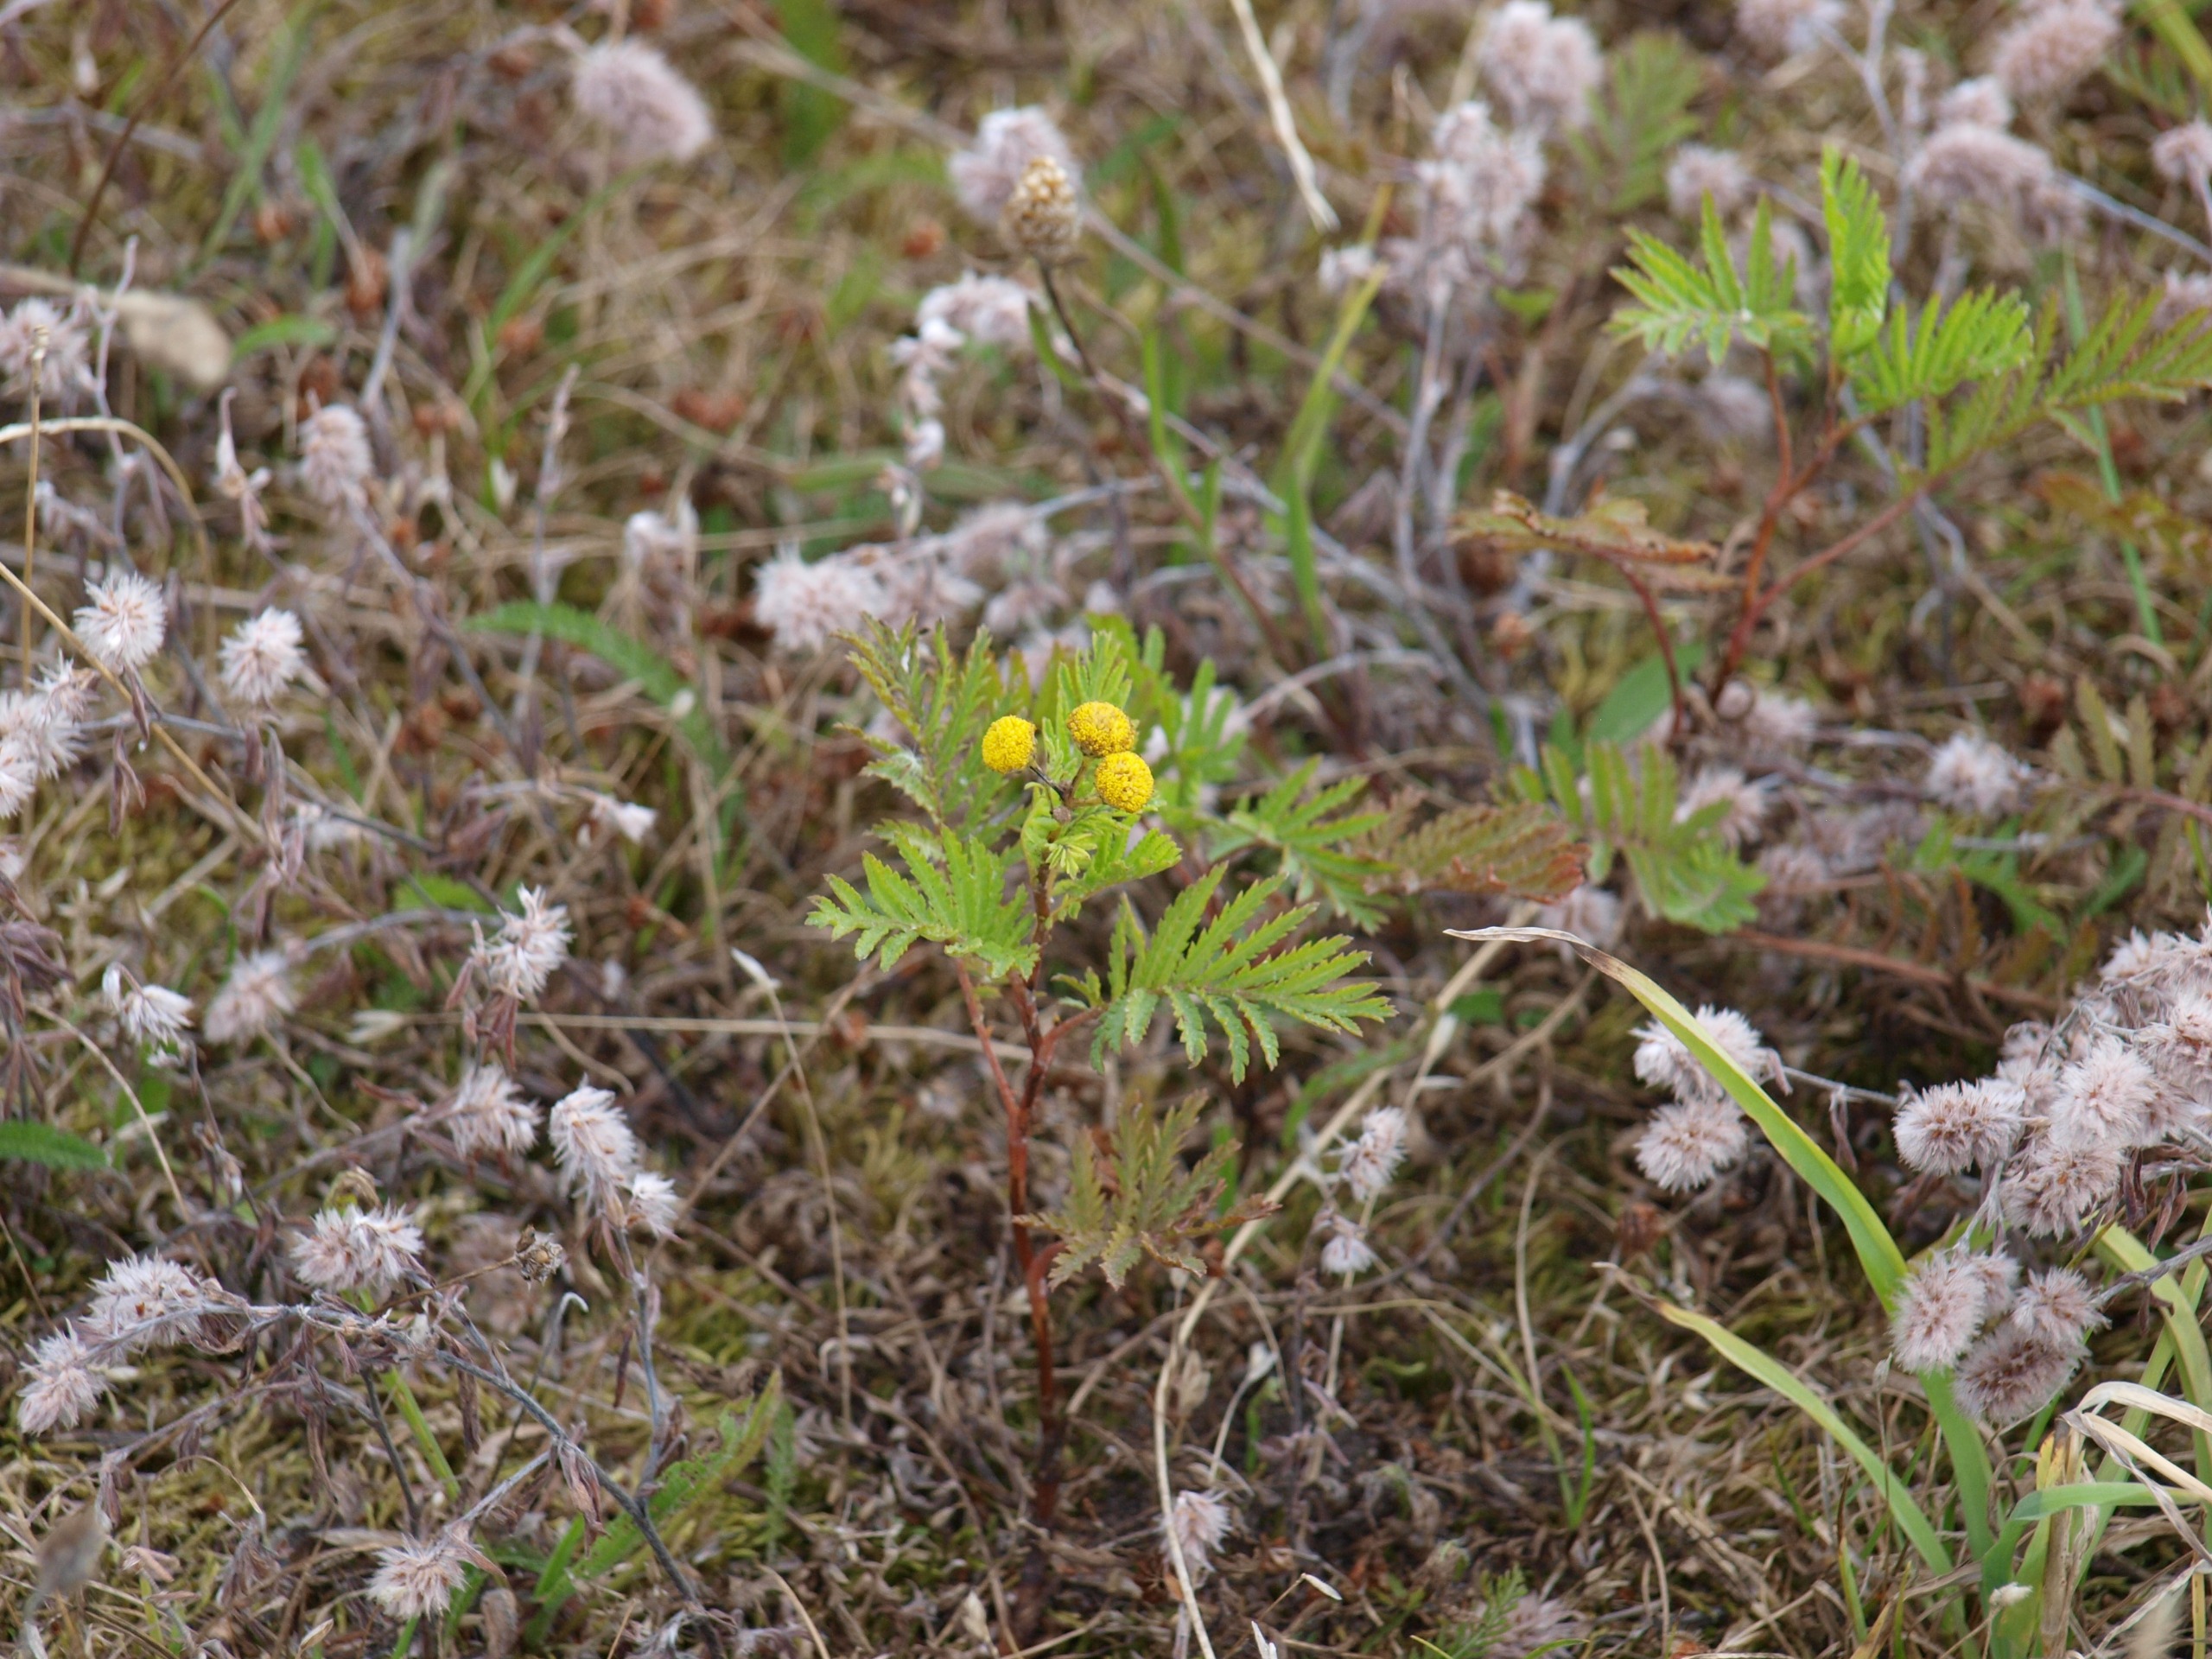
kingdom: Plantae
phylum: Tracheophyta
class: Magnoliopsida
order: Asterales
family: Asteraceae
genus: Tanacetum
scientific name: Tanacetum vulgare
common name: Rejnfan
